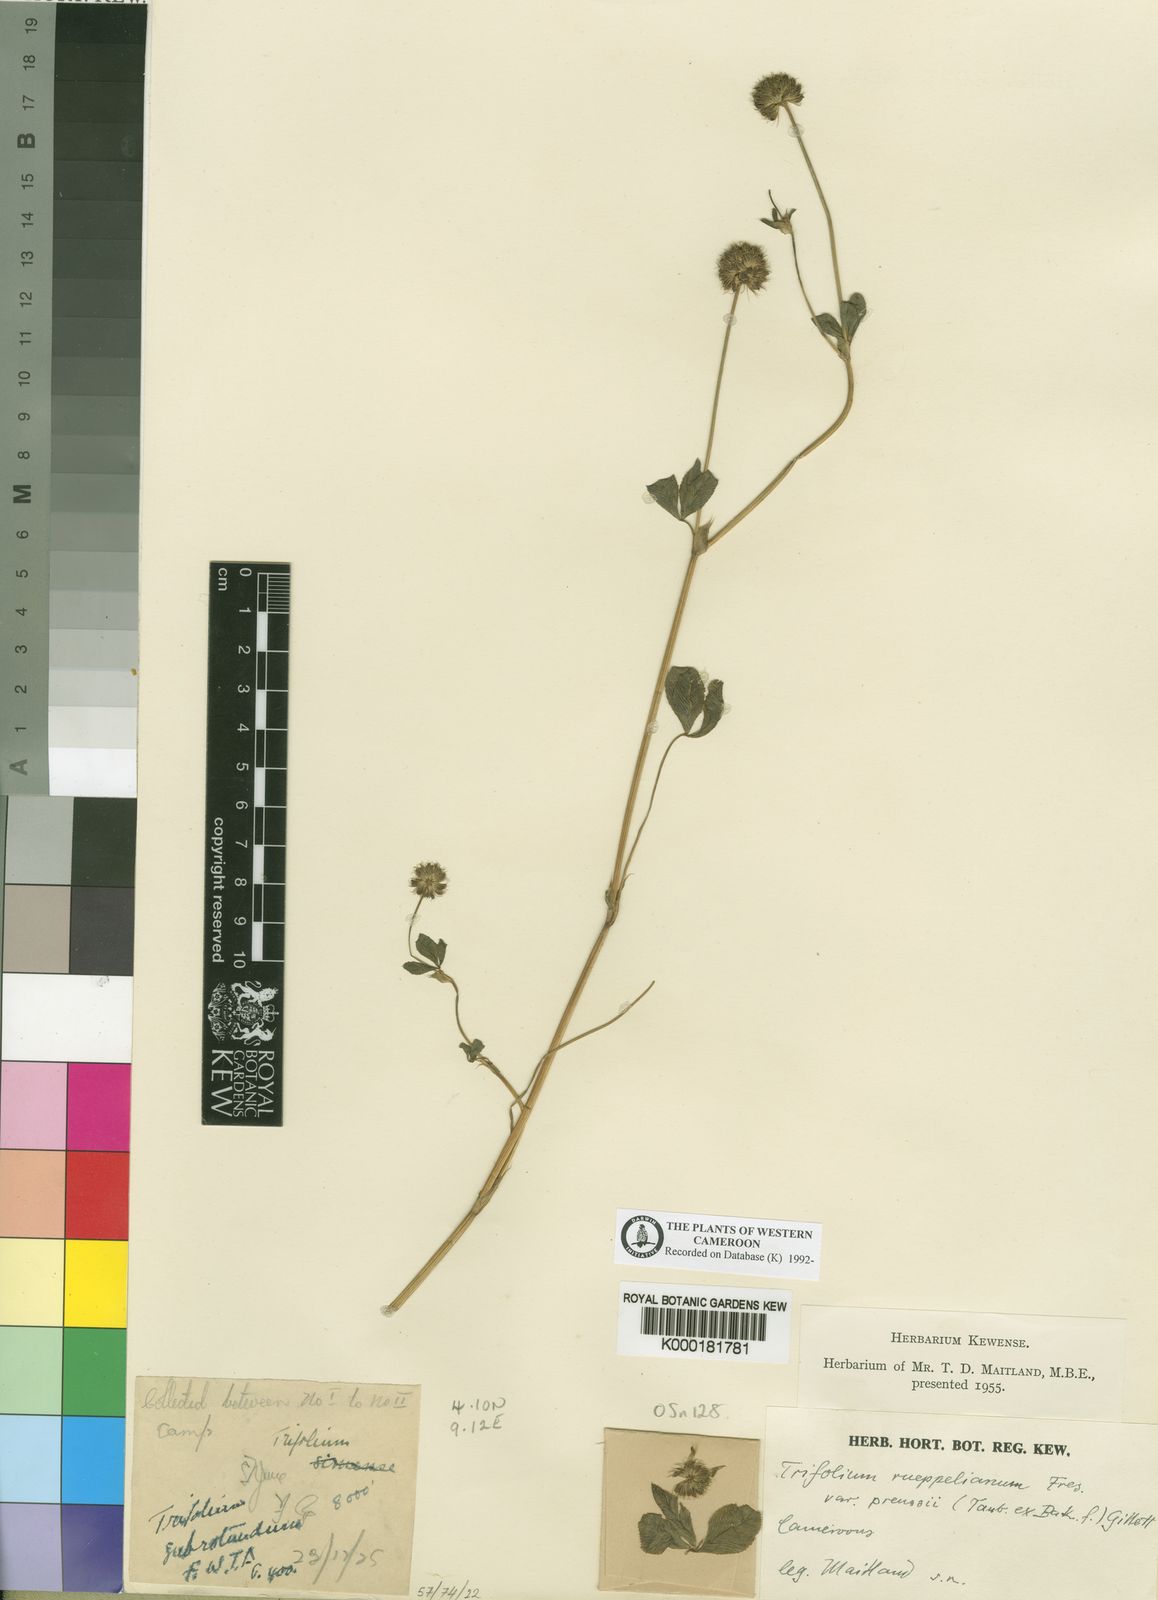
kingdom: Plantae
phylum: Tracheophyta
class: Magnoliopsida
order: Fabales
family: Fabaceae
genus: Trifolium
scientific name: Trifolium rueppellianum
